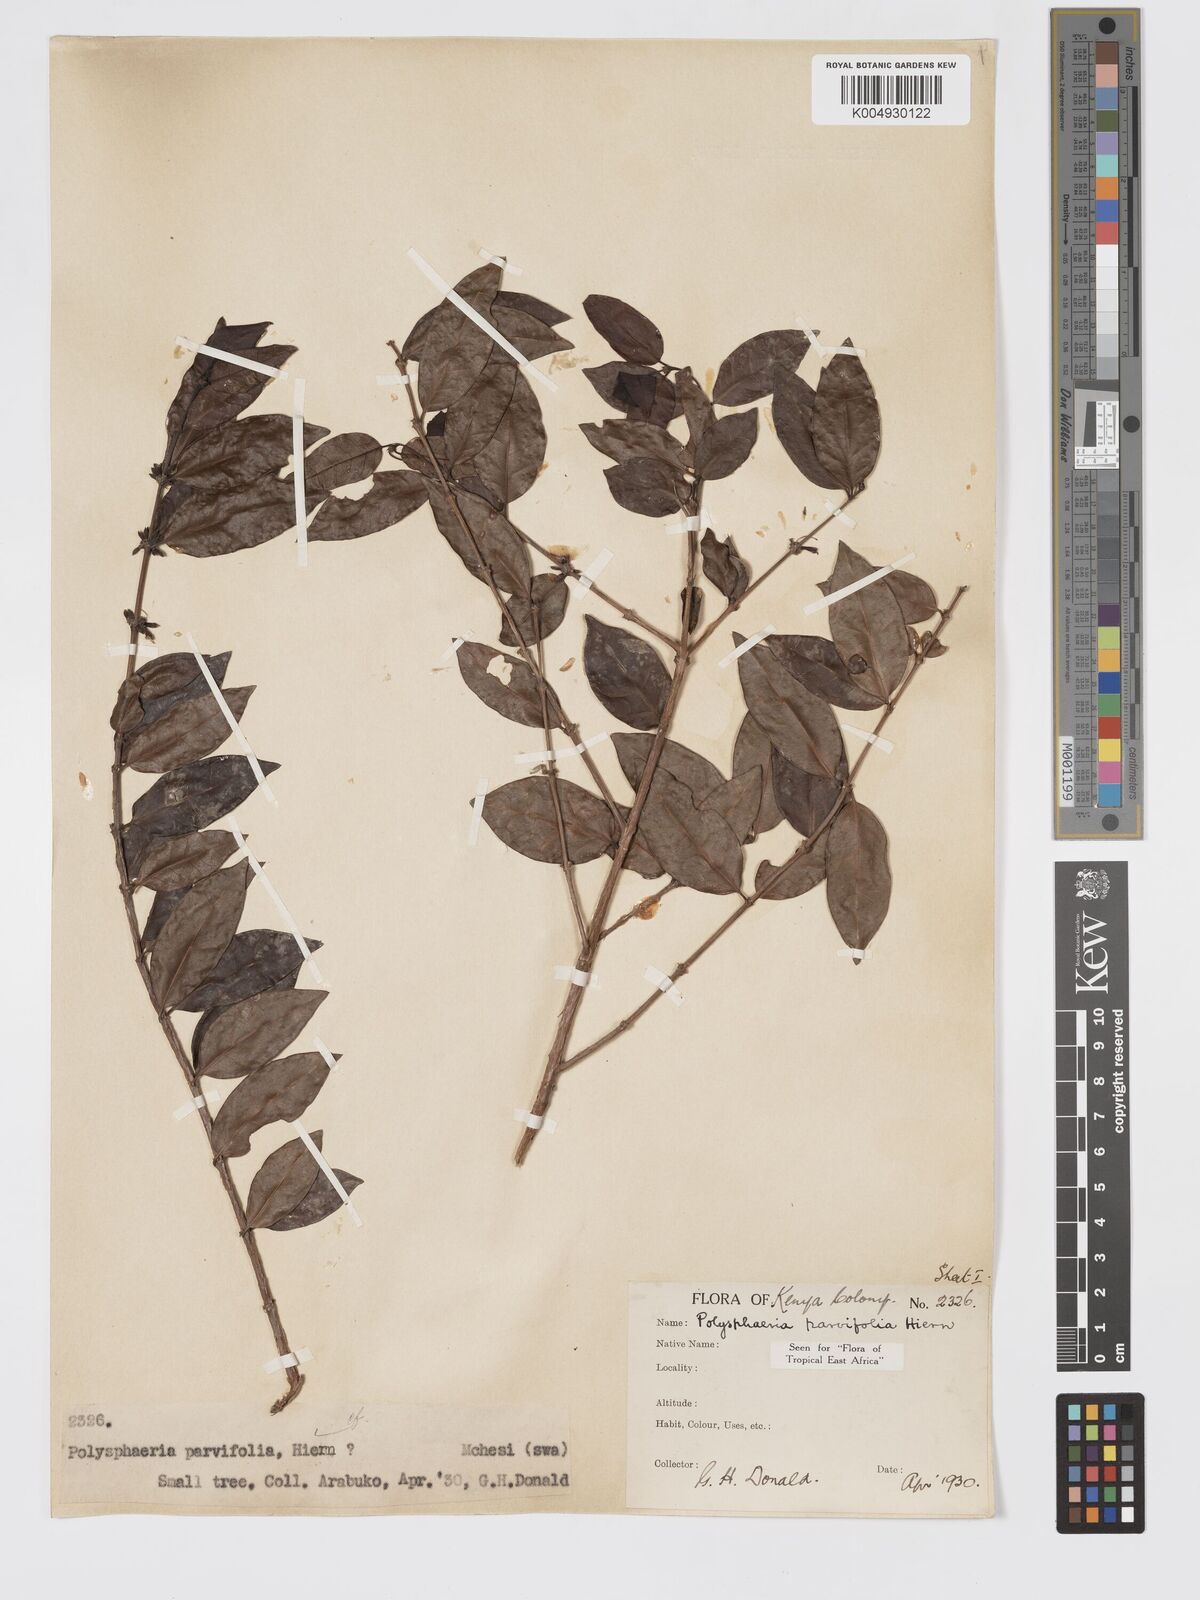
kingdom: Plantae
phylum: Tracheophyta
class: Magnoliopsida
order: Gentianales
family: Rubiaceae
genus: Polysphaeria
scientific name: Polysphaeria parvifolia
